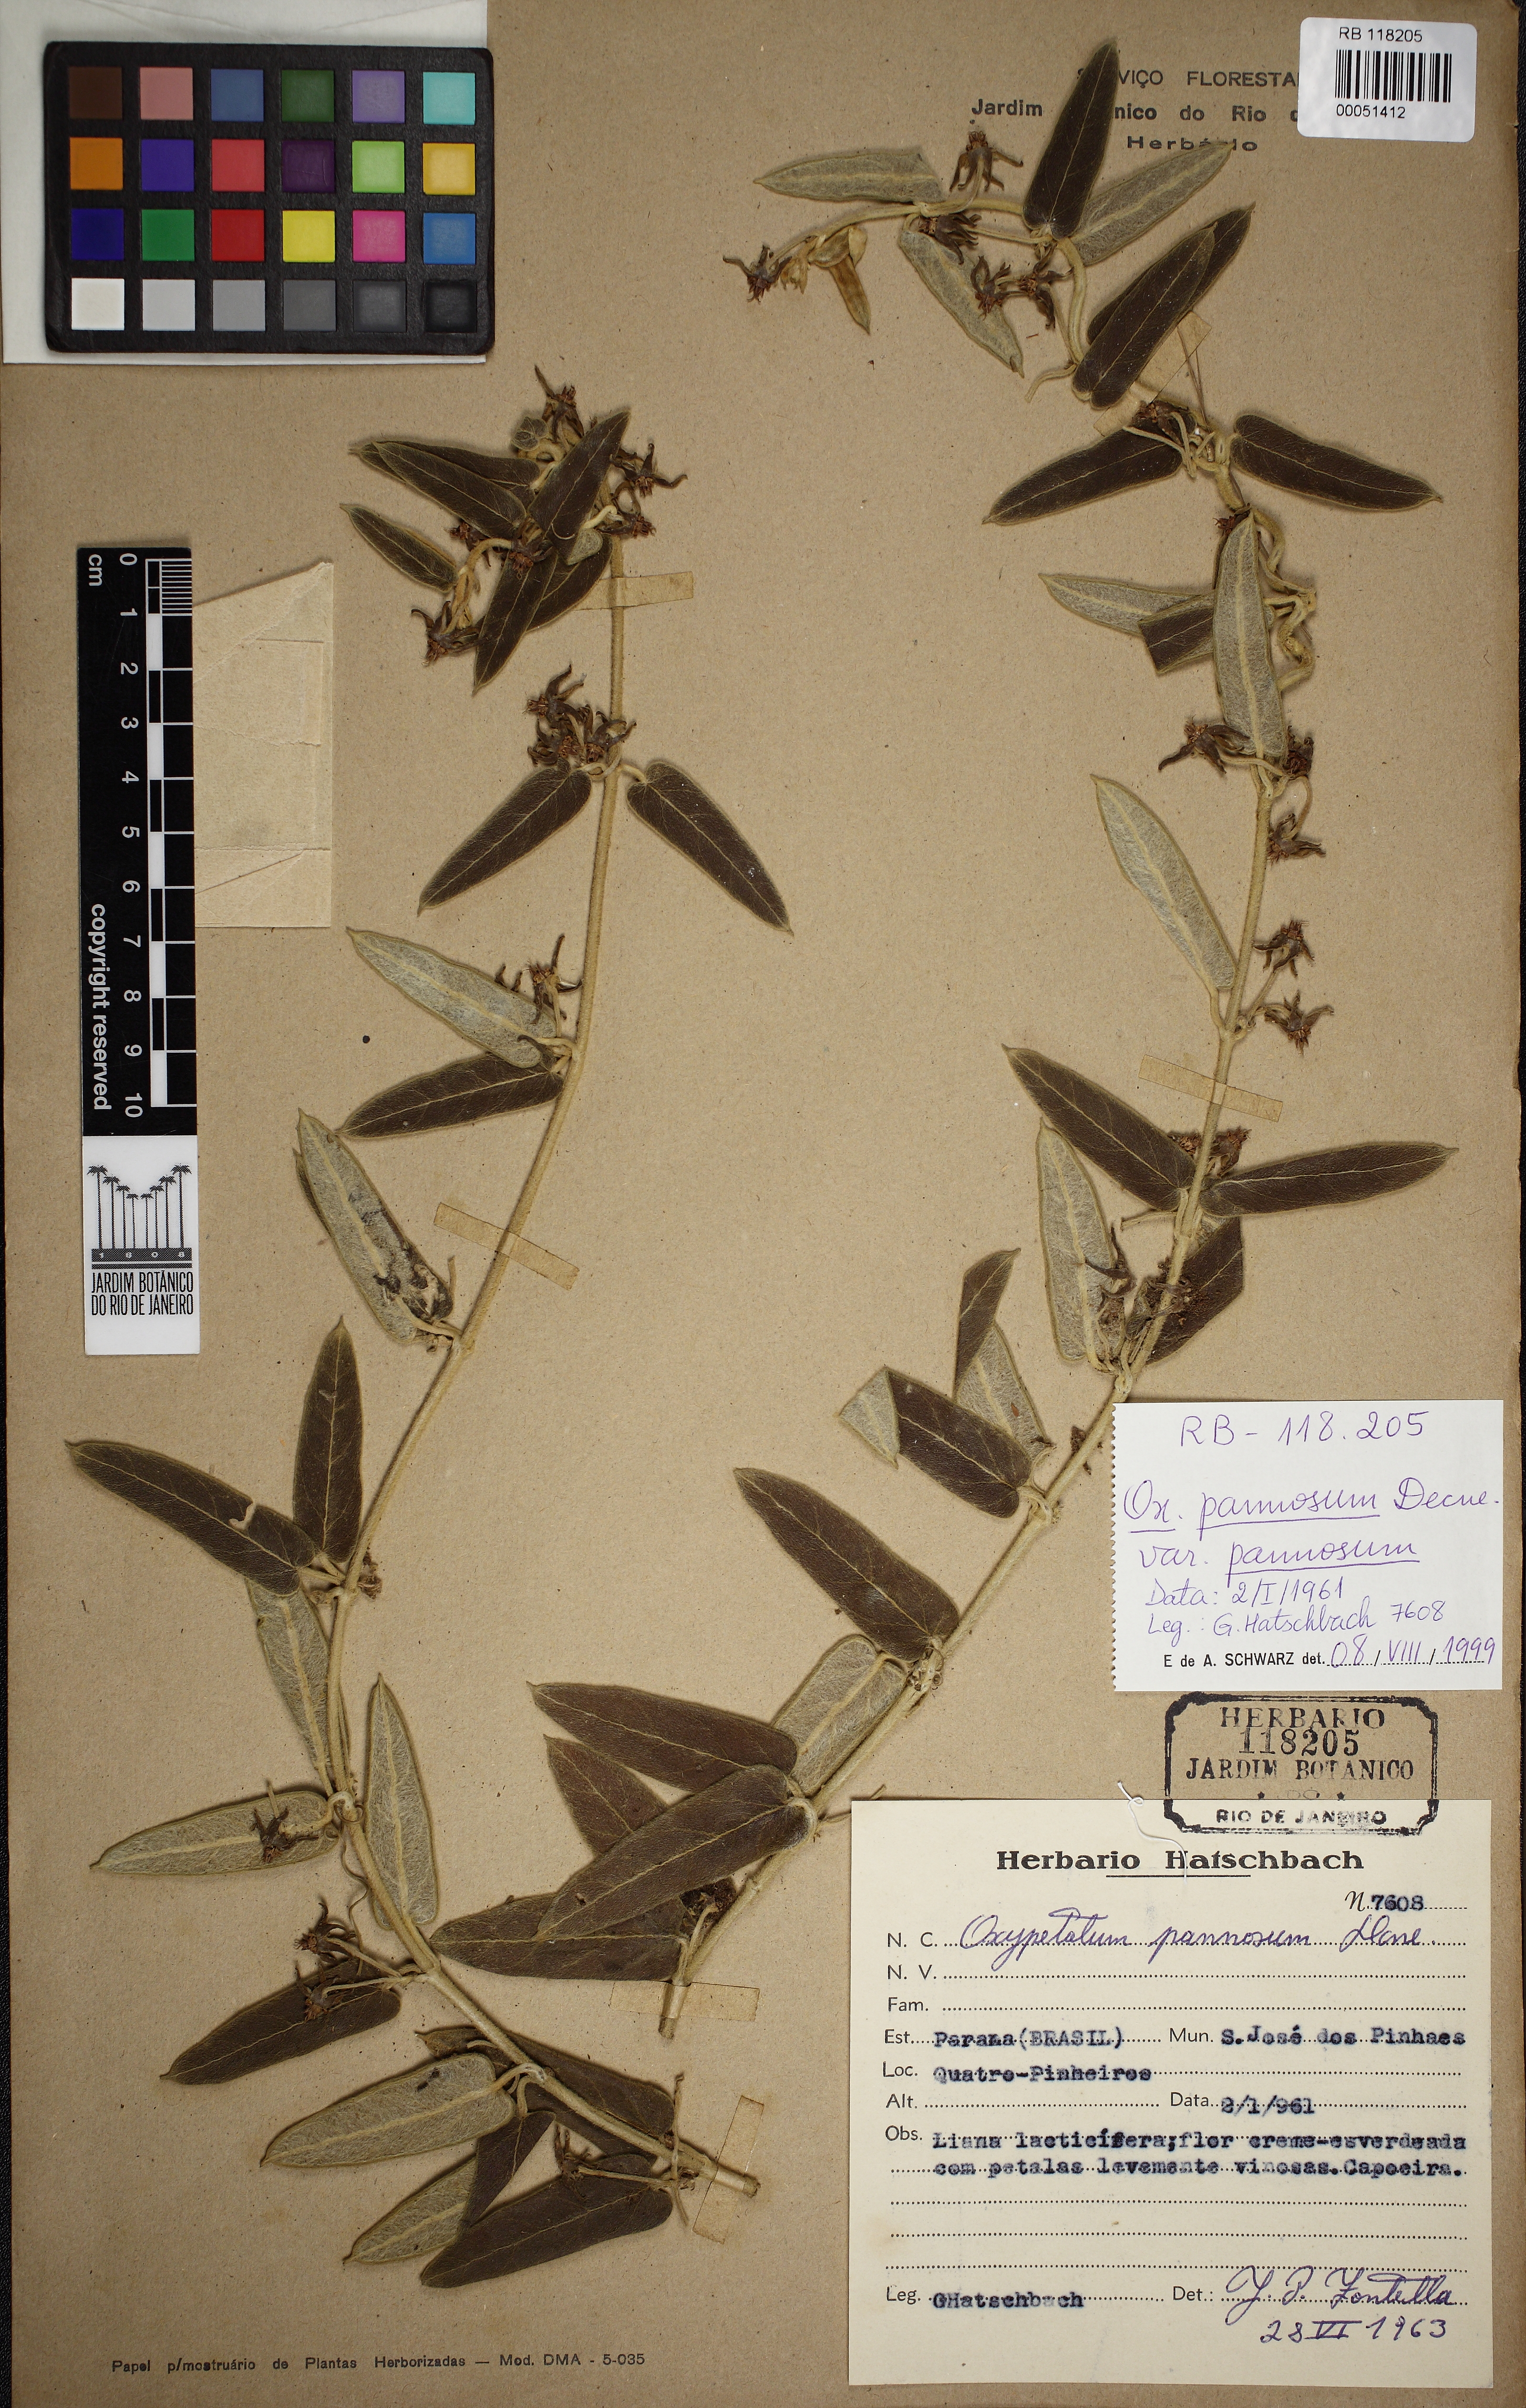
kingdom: Plantae
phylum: Tracheophyta
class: Magnoliopsida
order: Gentianales
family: Apocynaceae
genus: Oxypetalum
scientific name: Oxypetalum pannosum
